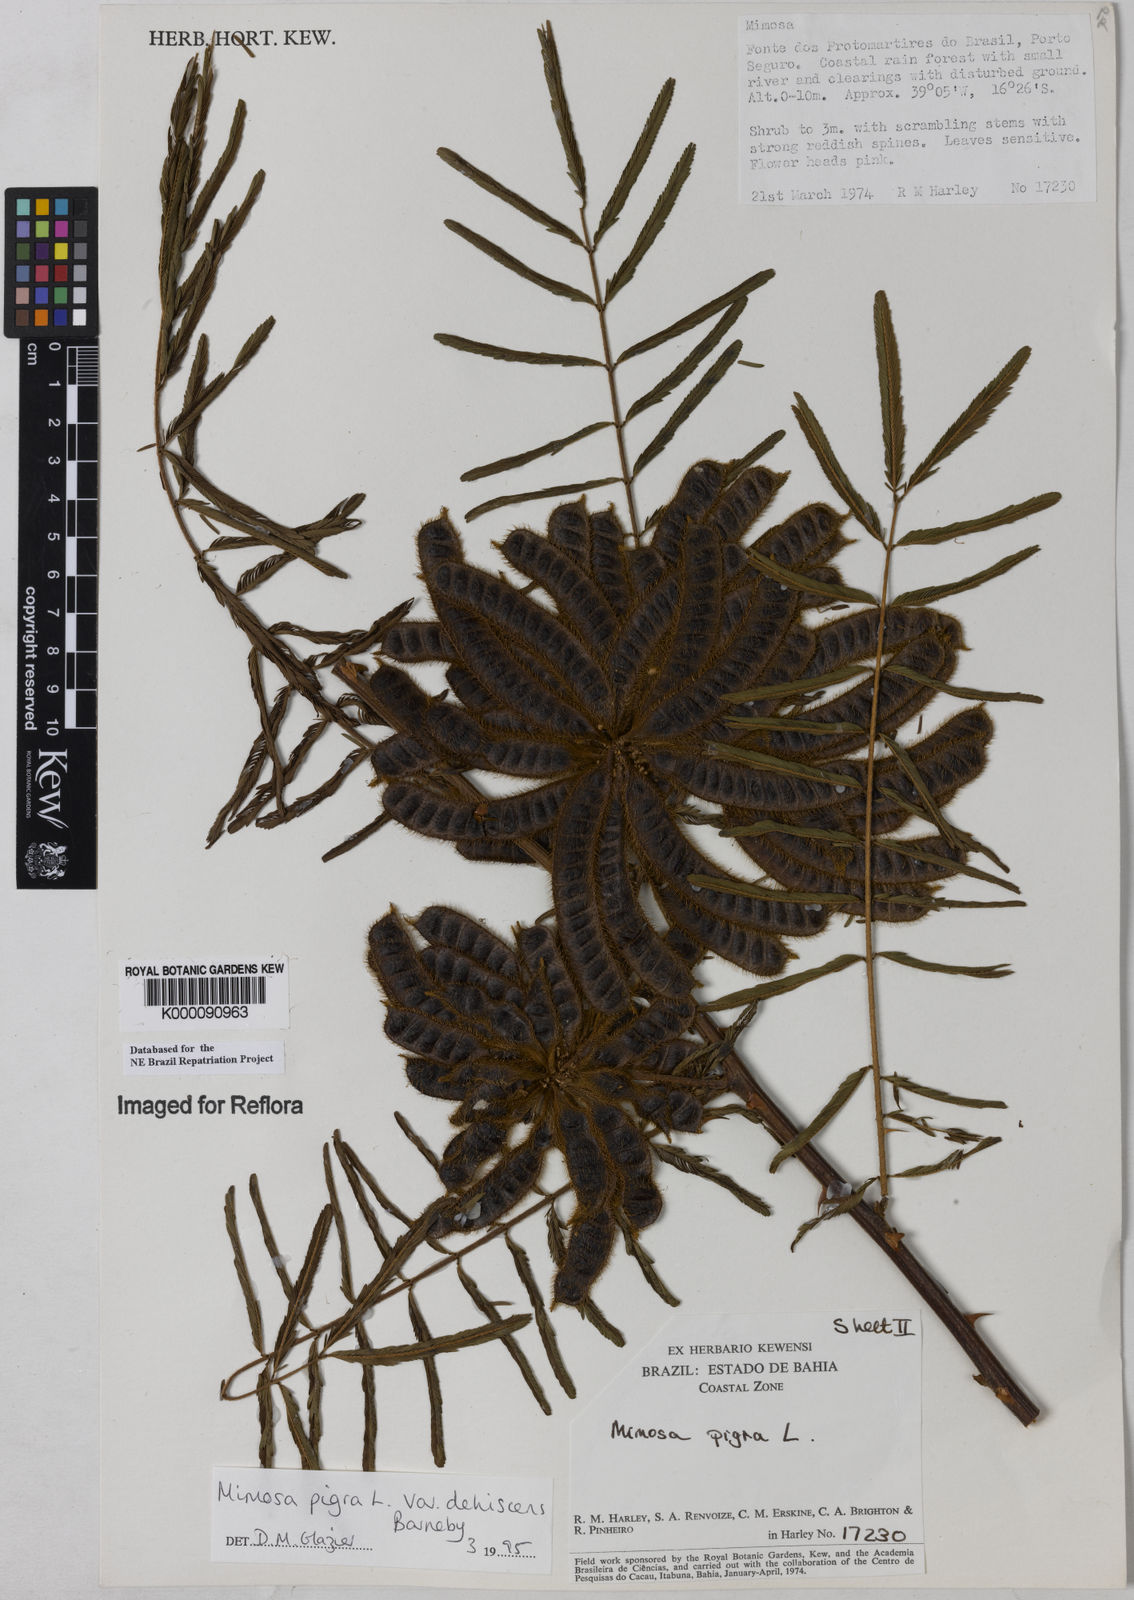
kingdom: Plantae
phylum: Tracheophyta
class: Magnoliopsida
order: Fabales
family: Fabaceae
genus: Mimosa
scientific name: Mimosa pigra
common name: Black mimosa
